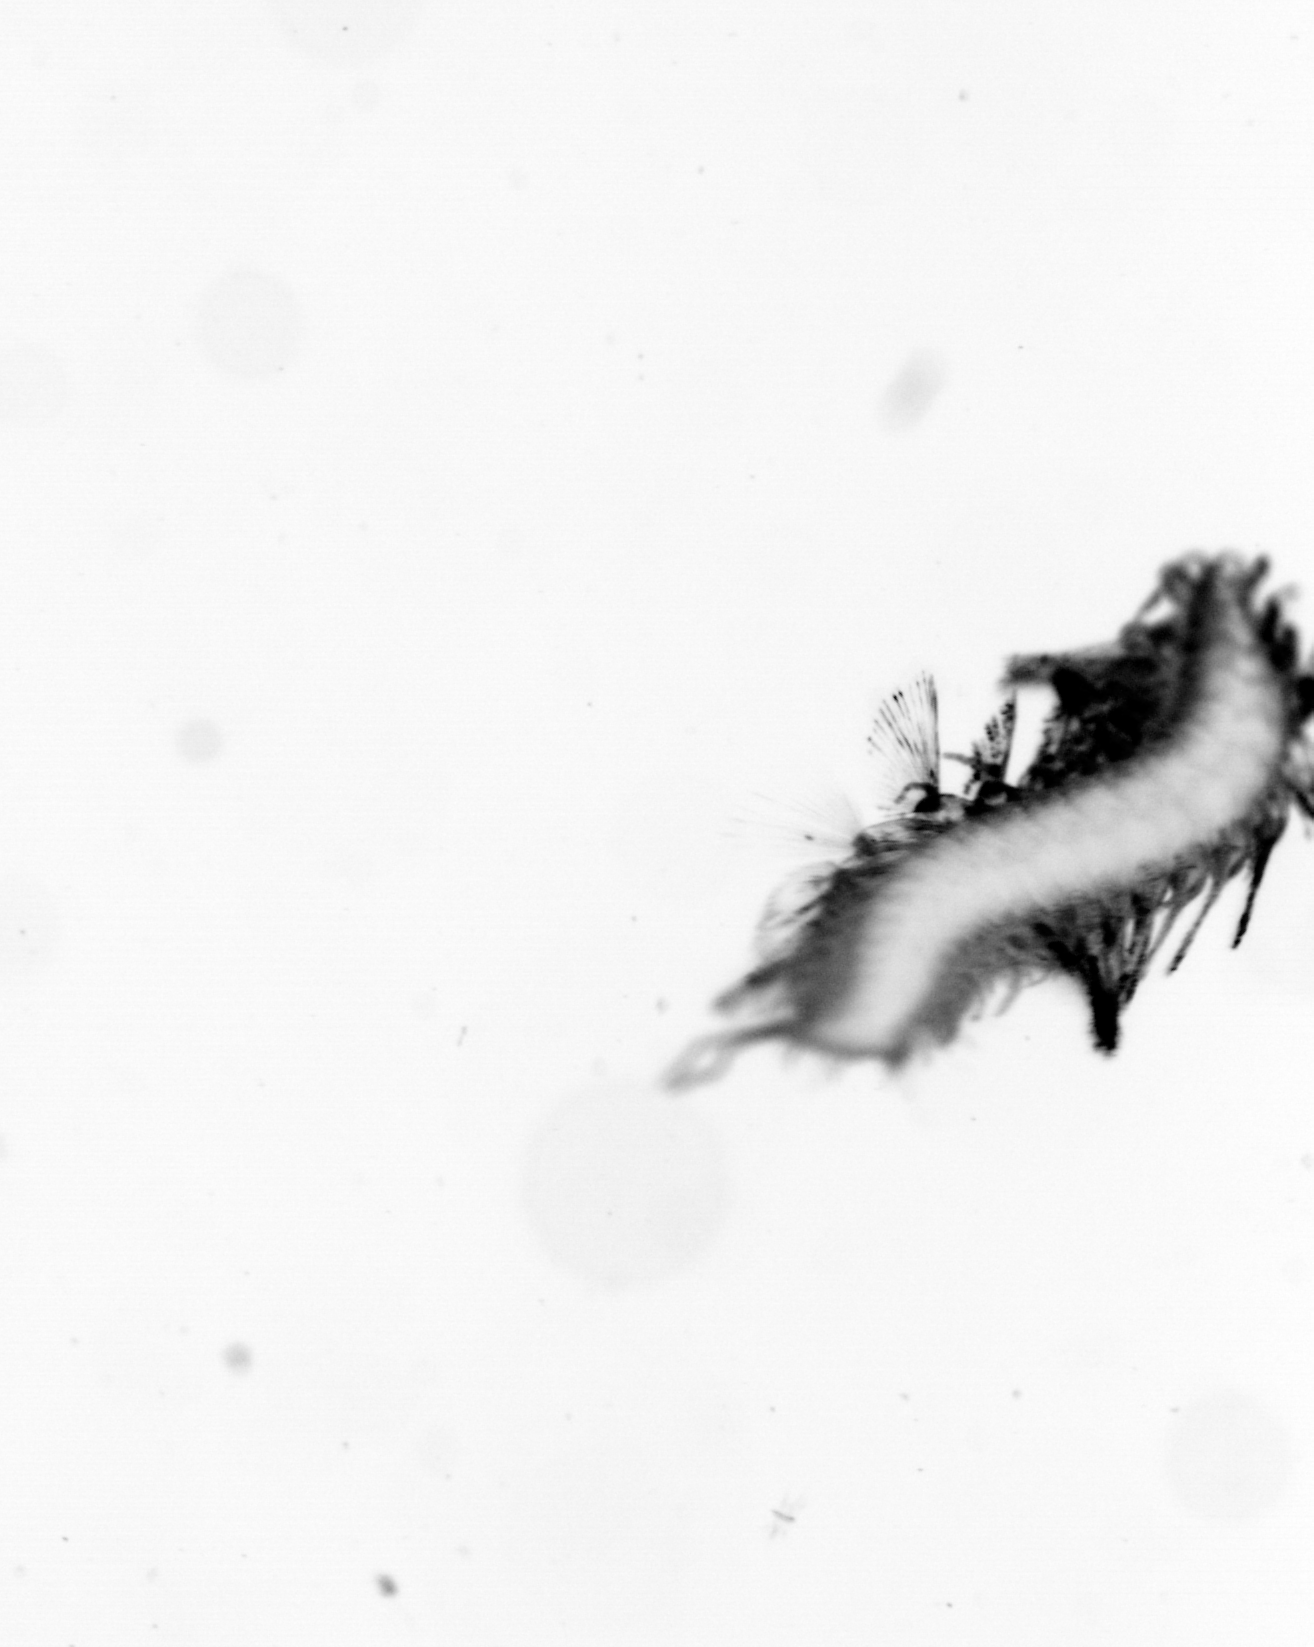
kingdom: Animalia
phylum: Annelida
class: Polychaeta
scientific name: Polychaeta
